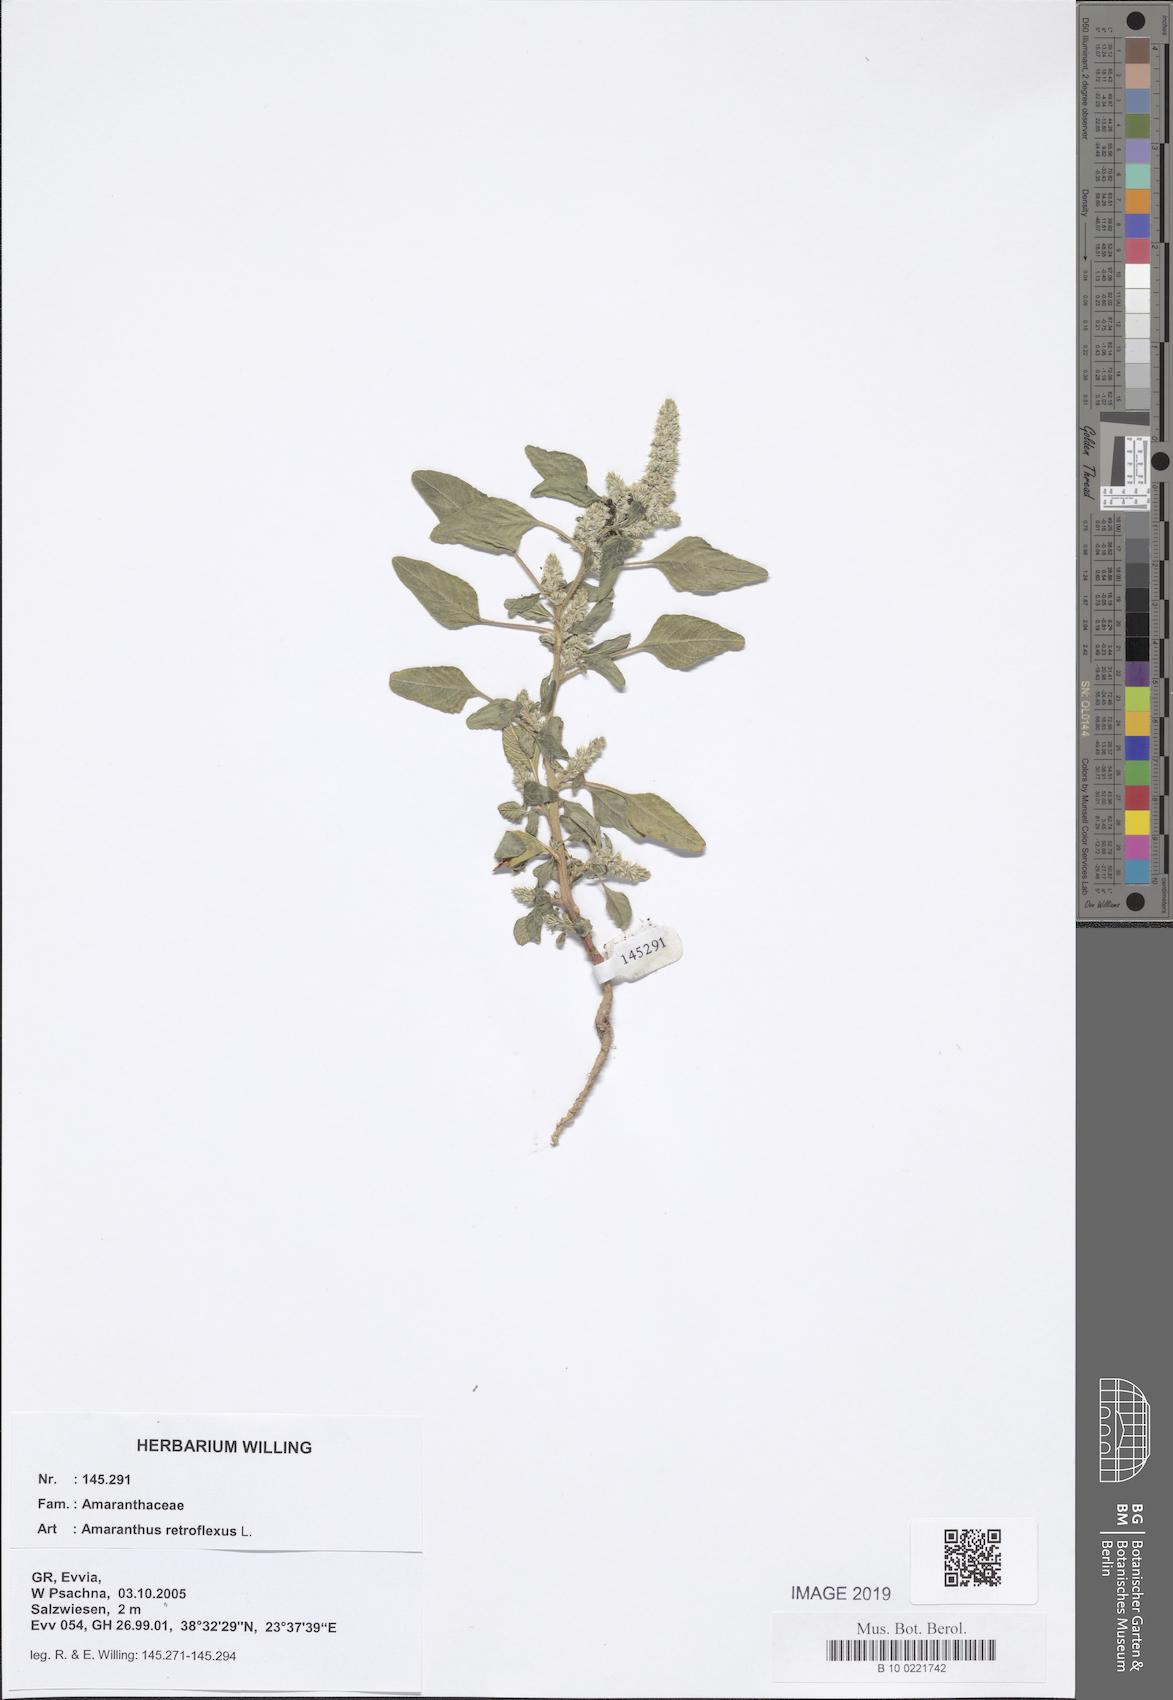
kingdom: Plantae
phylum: Tracheophyta
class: Magnoliopsida
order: Caryophyllales
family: Amaranthaceae
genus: Amaranthus
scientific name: Amaranthus retroflexus
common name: Redroot amaranth
